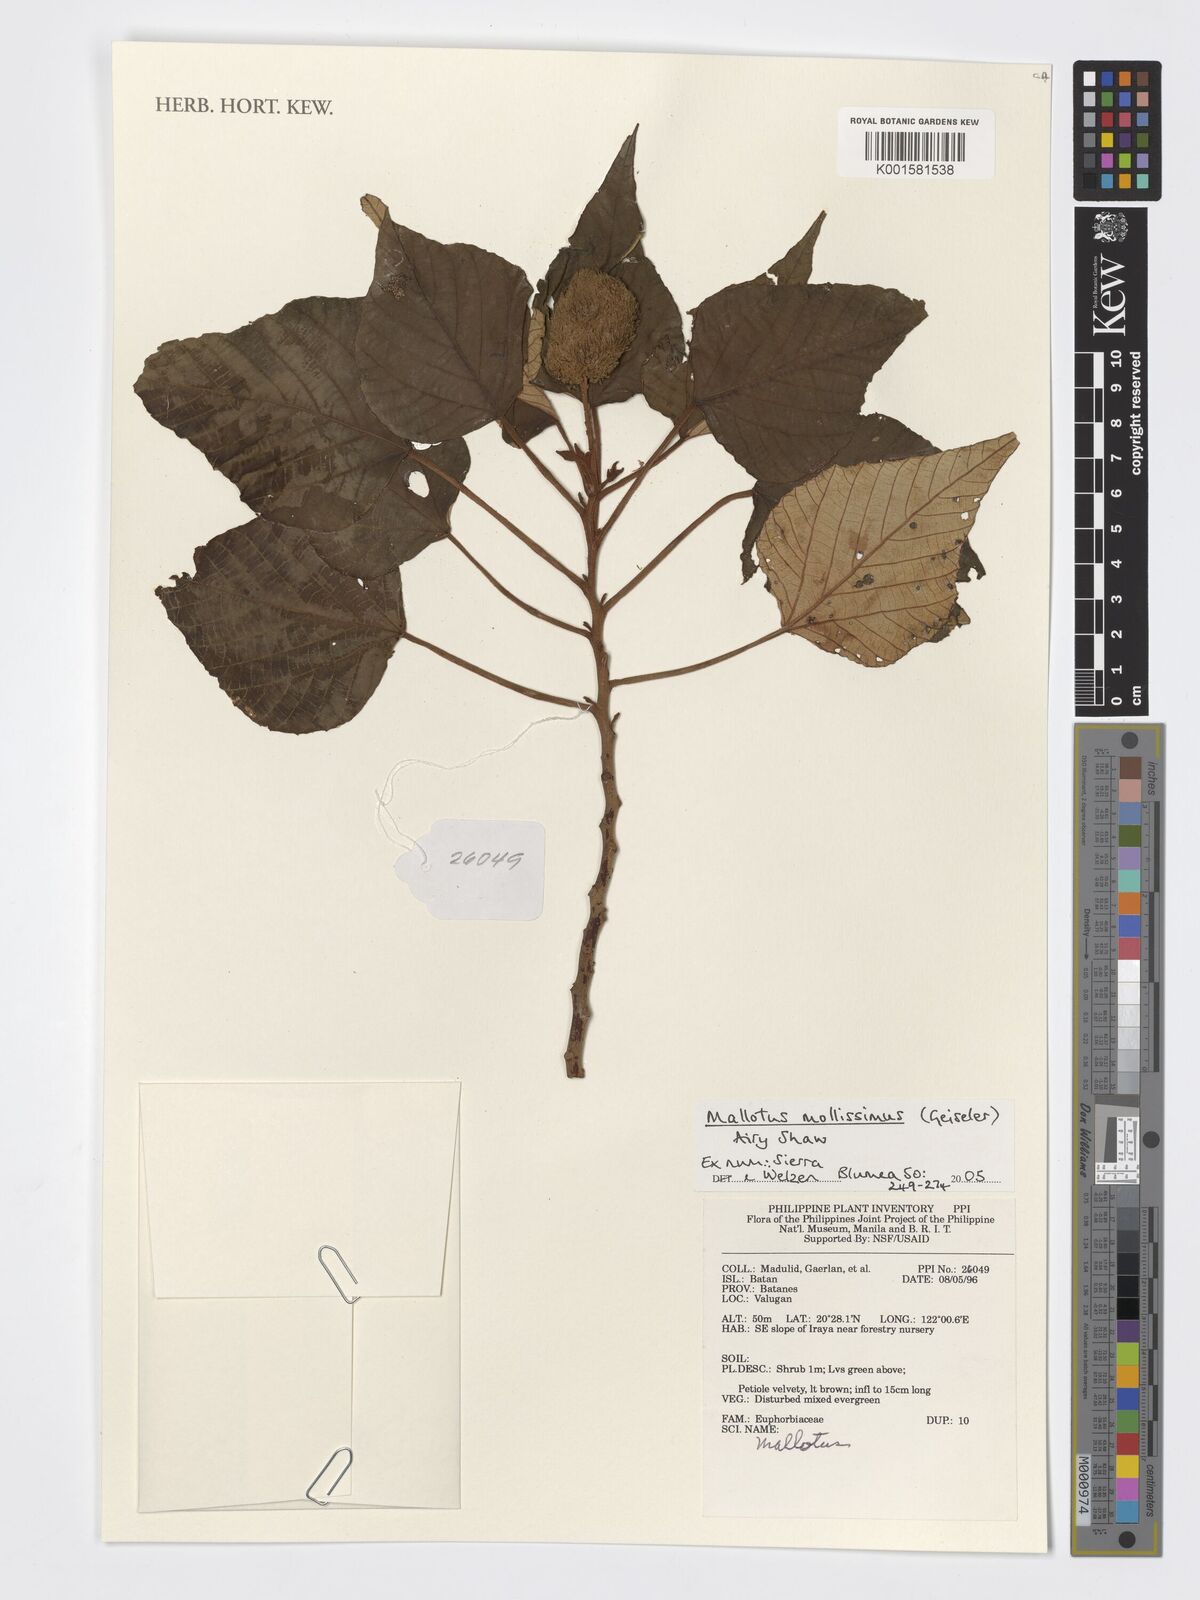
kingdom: Plantae
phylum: Tracheophyta
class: Magnoliopsida
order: Malpighiales
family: Euphorbiaceae
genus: Mallotus
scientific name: Mallotus mollissimus
